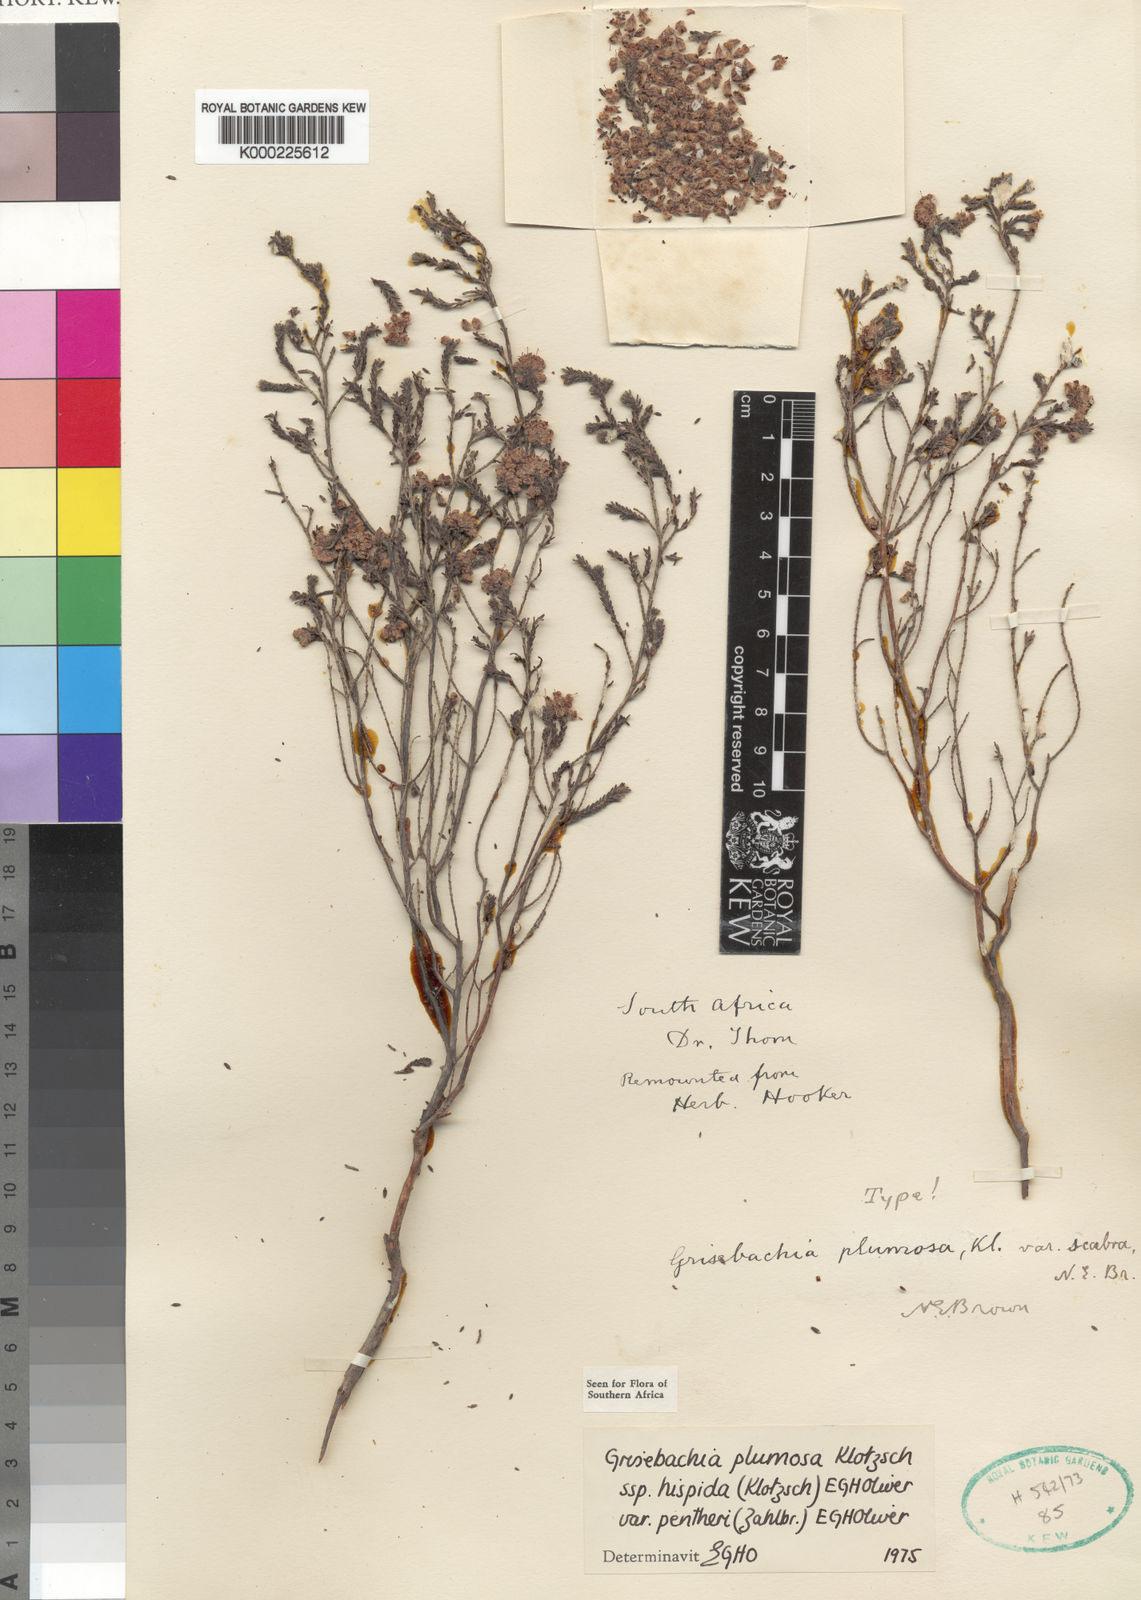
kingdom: Plantae
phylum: Tracheophyta
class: Magnoliopsida
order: Ericales
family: Ericaceae
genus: Erica
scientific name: Erica plumosa
